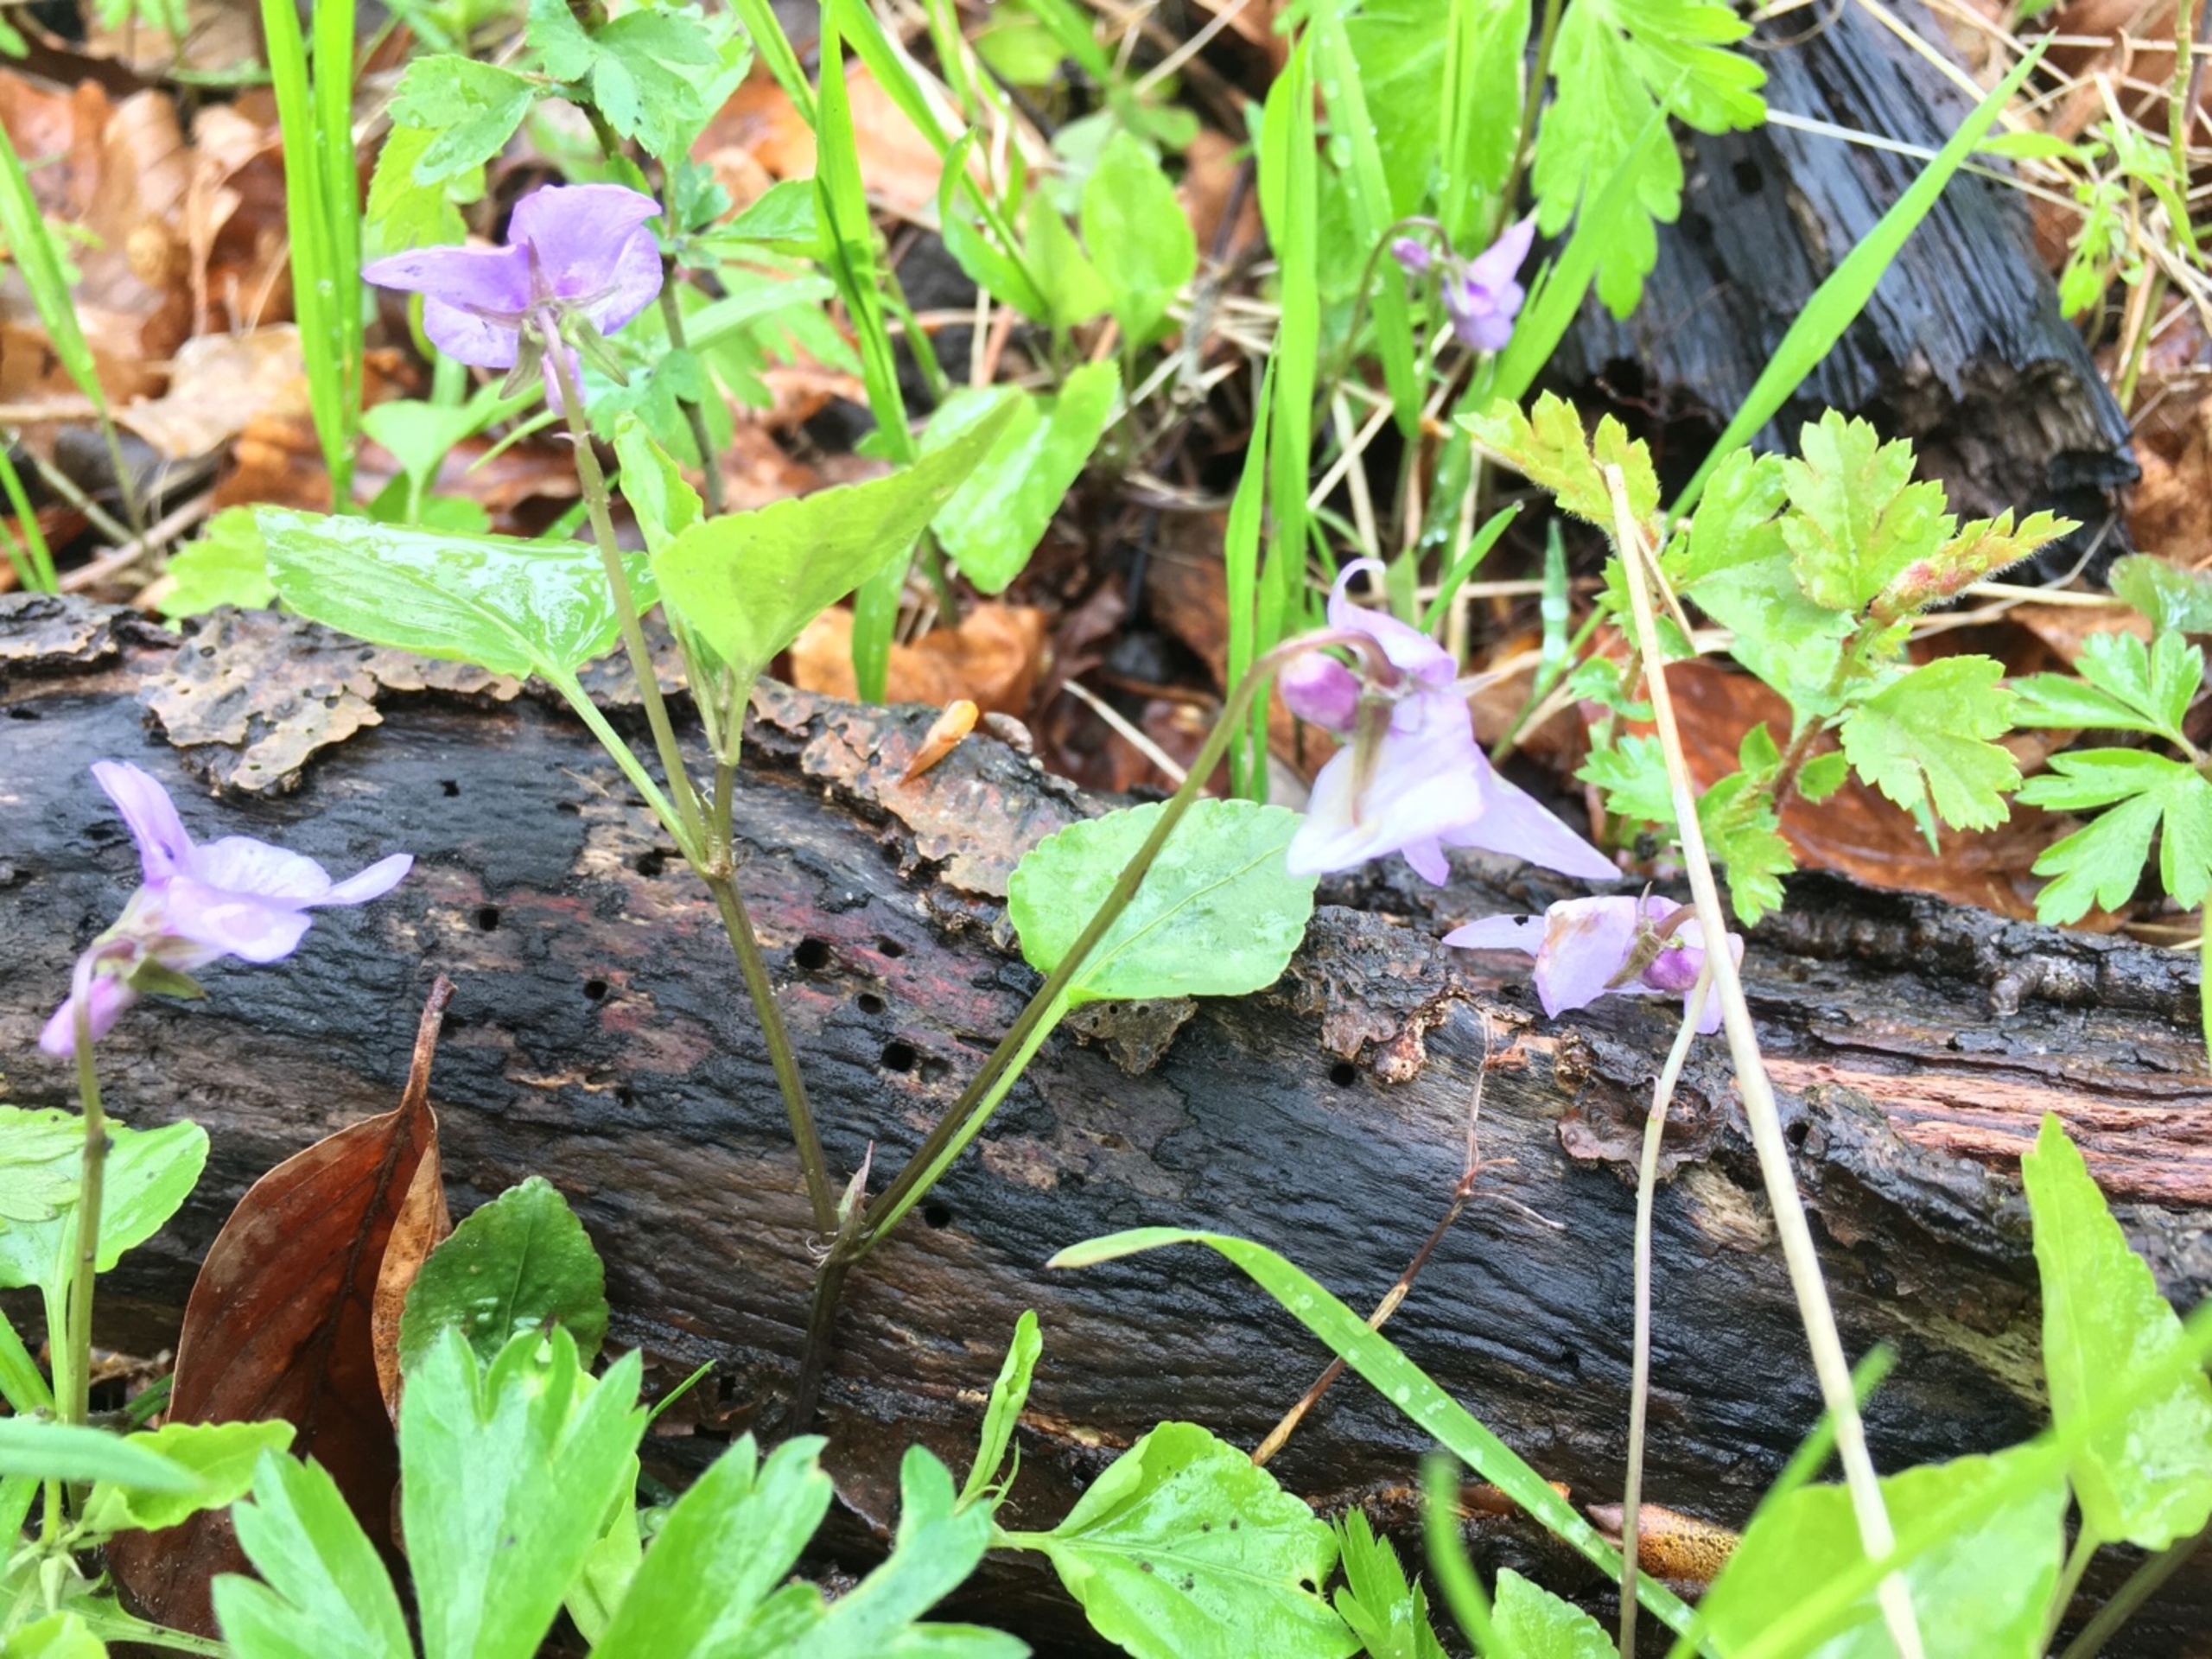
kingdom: Plantae
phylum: Tracheophyta
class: Magnoliopsida
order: Malpighiales
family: Violaceae
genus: Viola
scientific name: Viola reichenbachiana
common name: Skov-viol
